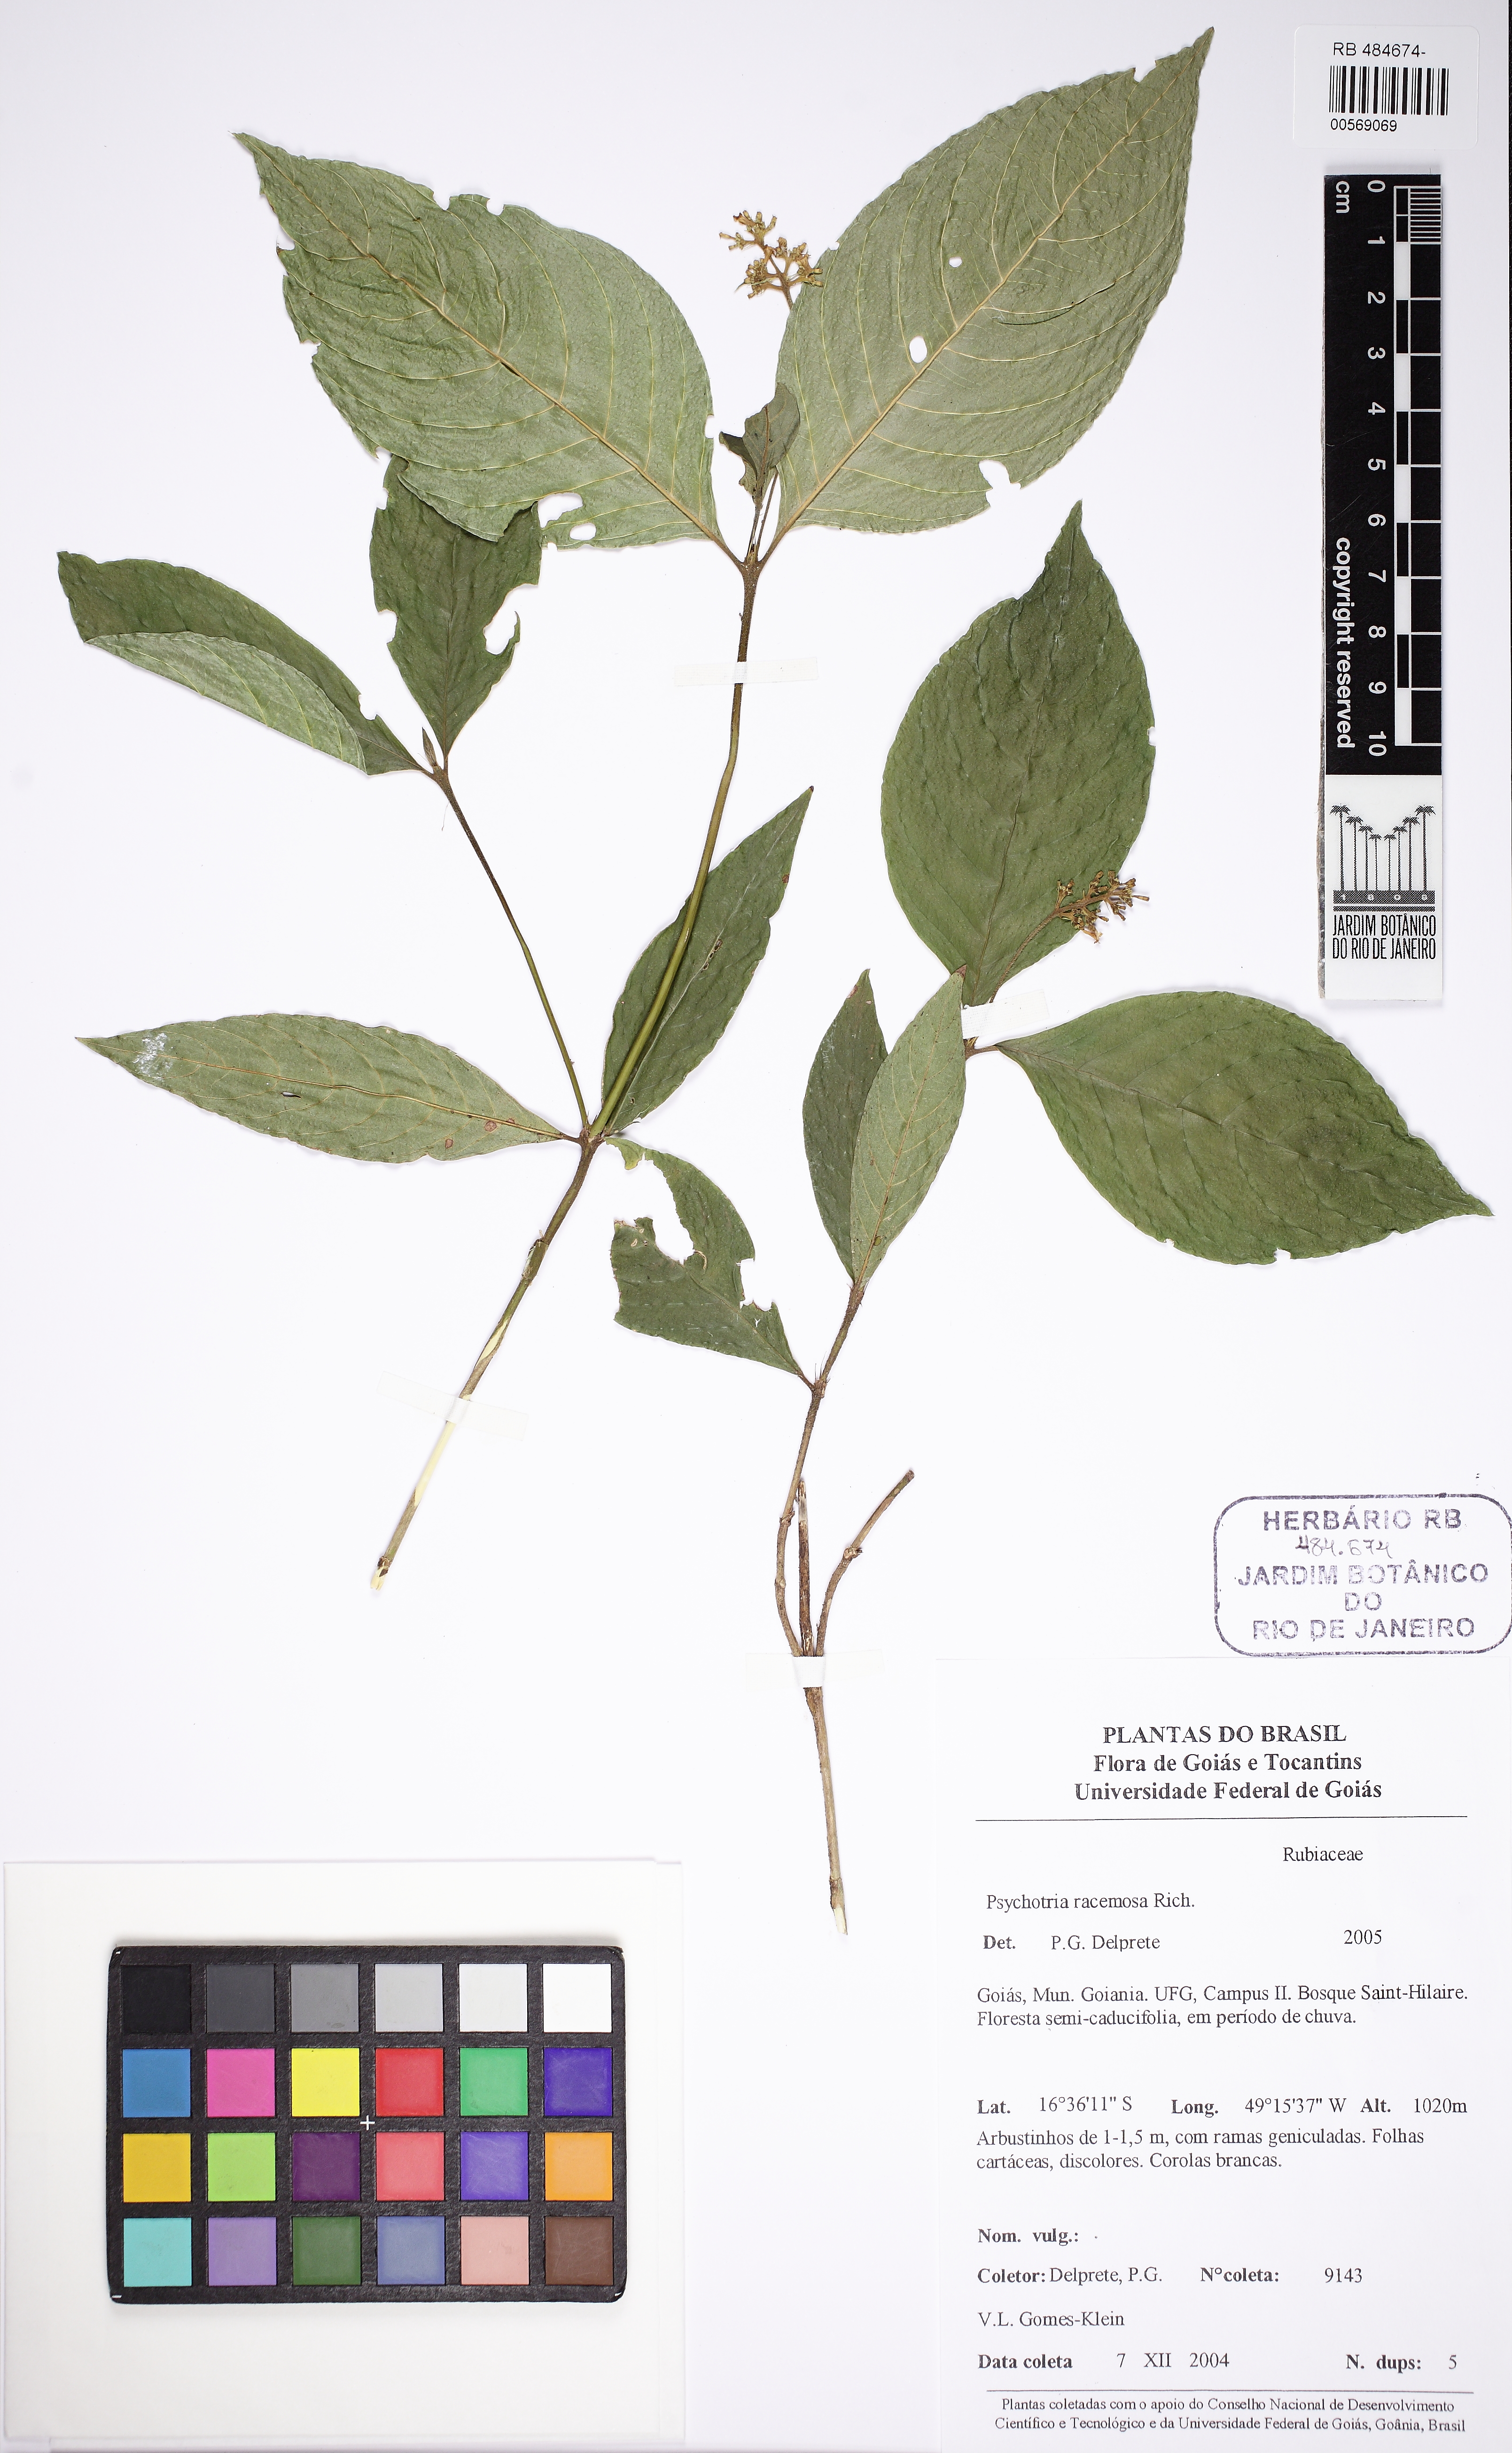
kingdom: Plantae
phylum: Tracheophyta
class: Magnoliopsida
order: Gentianales
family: Rubiaceae
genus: Palicourea
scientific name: Palicourea racemosa
